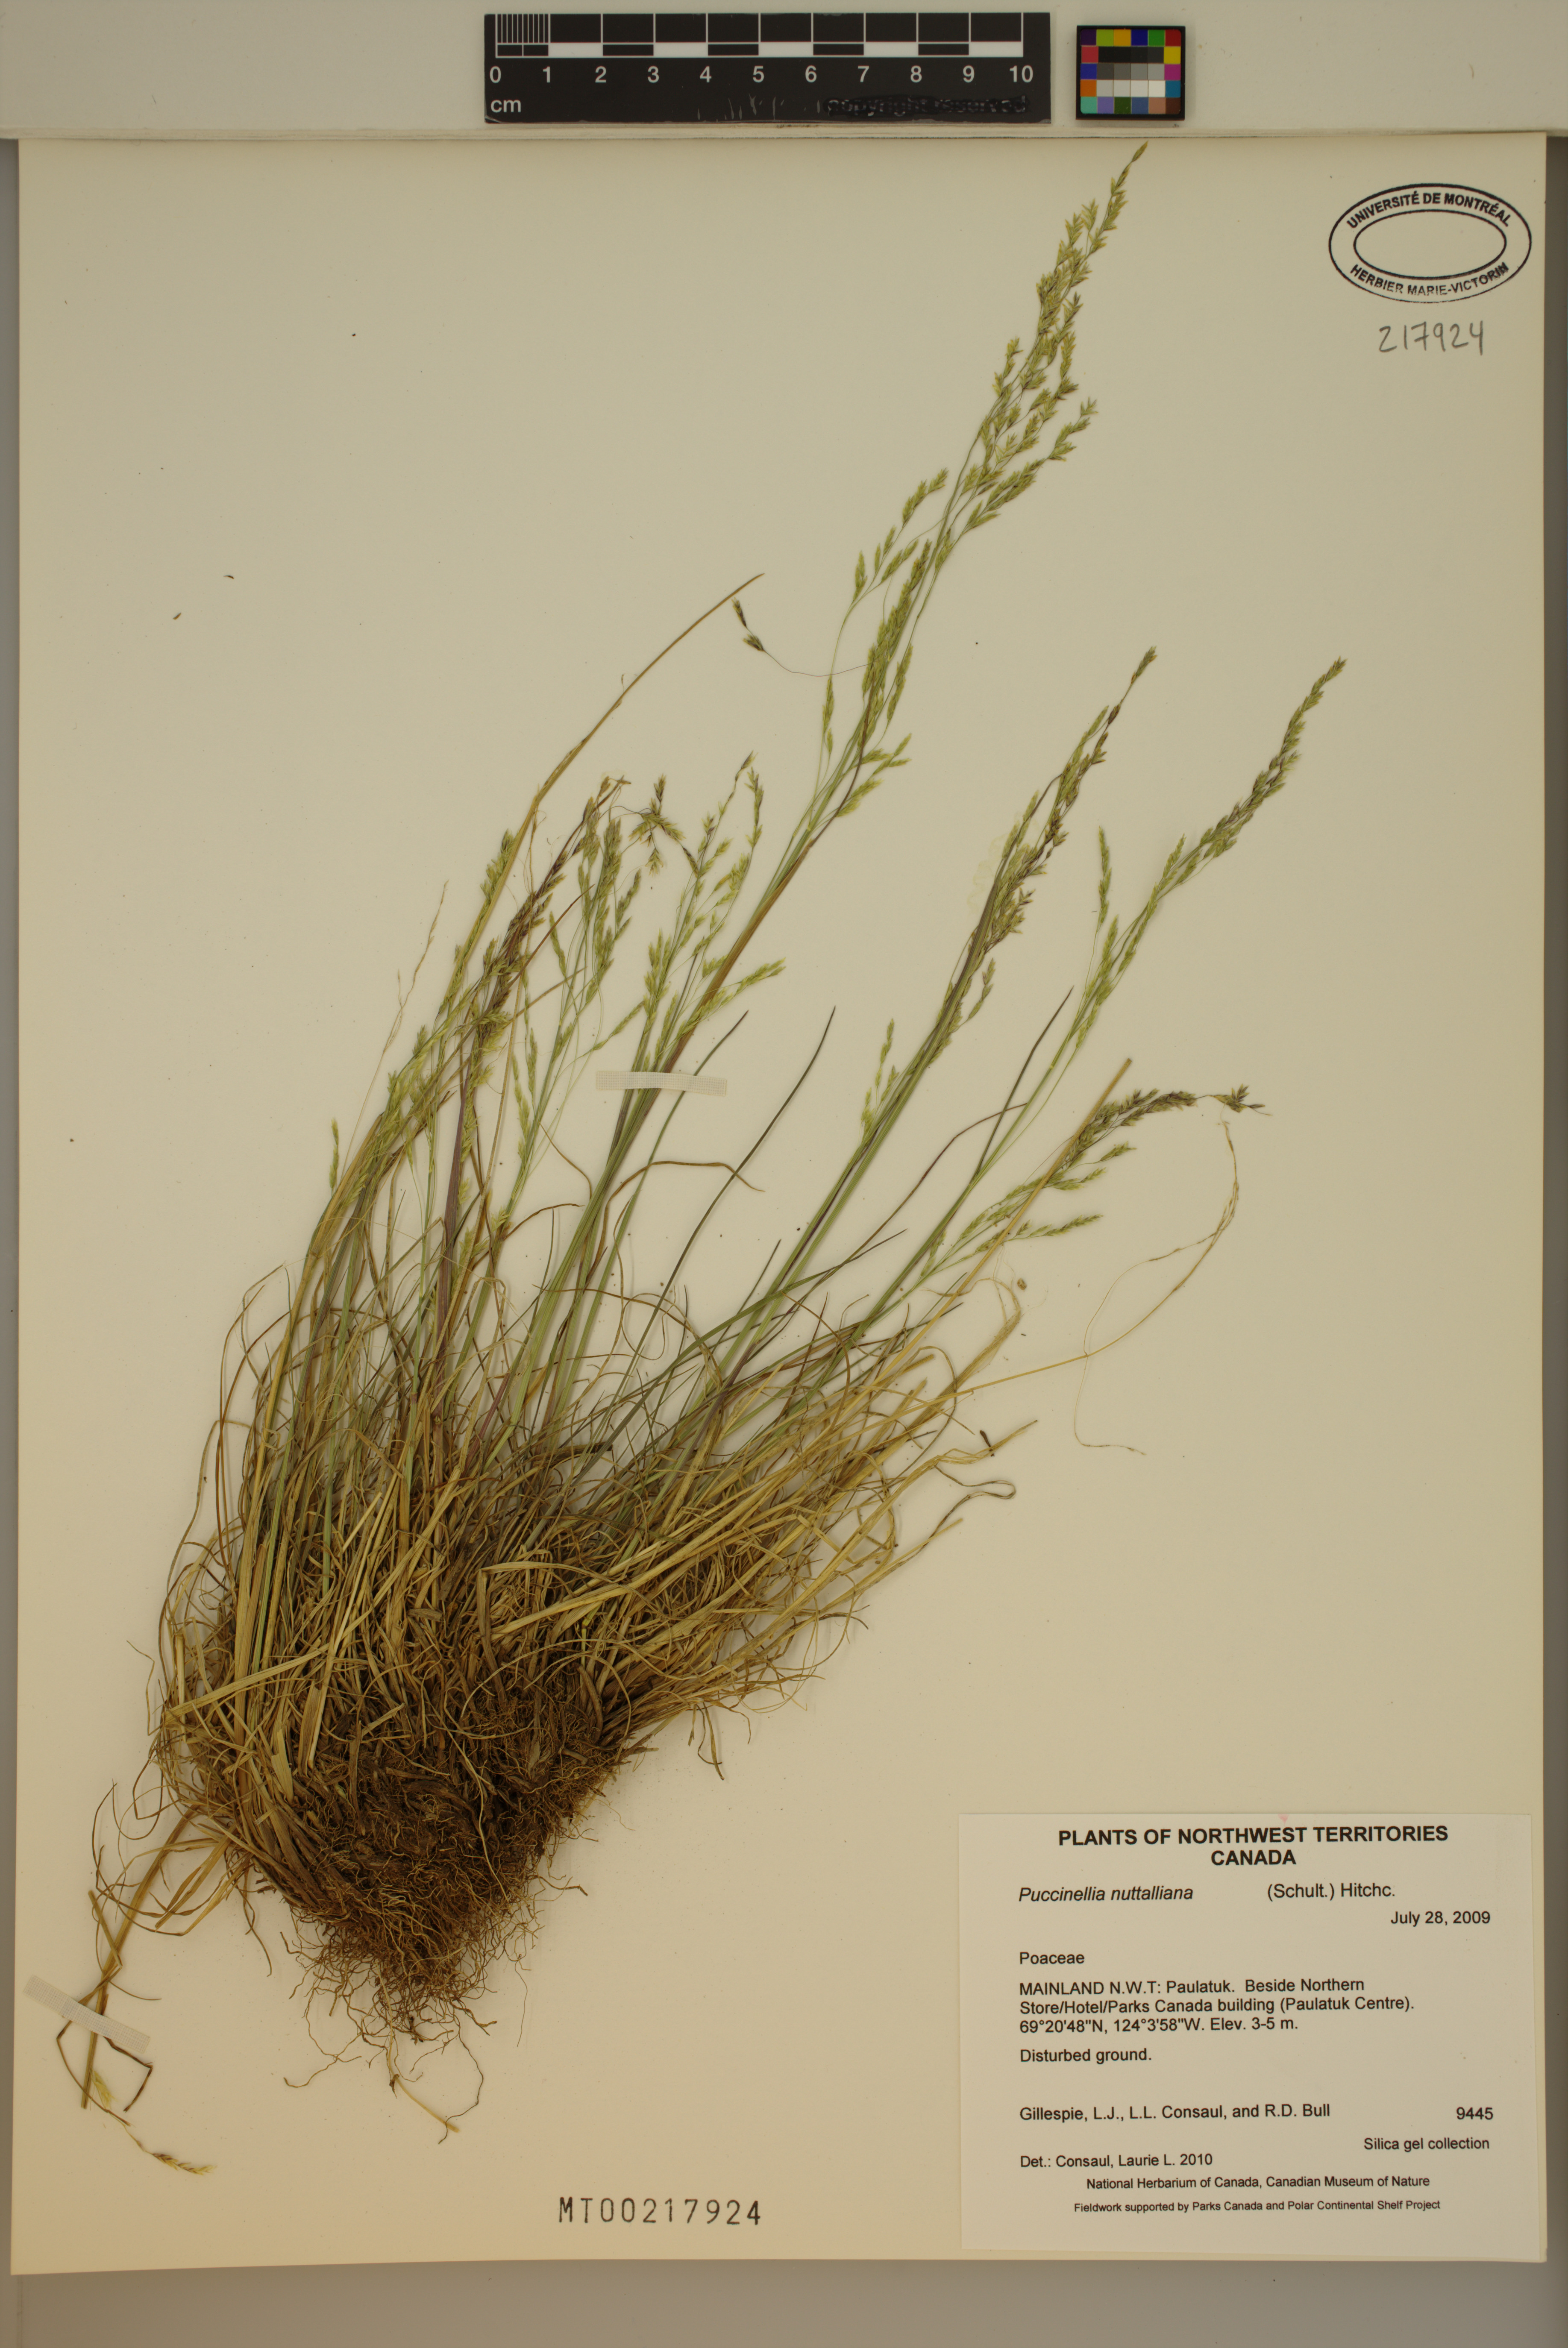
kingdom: Plantae
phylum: Tracheophyta
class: Liliopsida
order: Poales
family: Poaceae
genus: Puccinellia
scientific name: Puccinellia nuttalliana
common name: Nuttall's alkali grass
